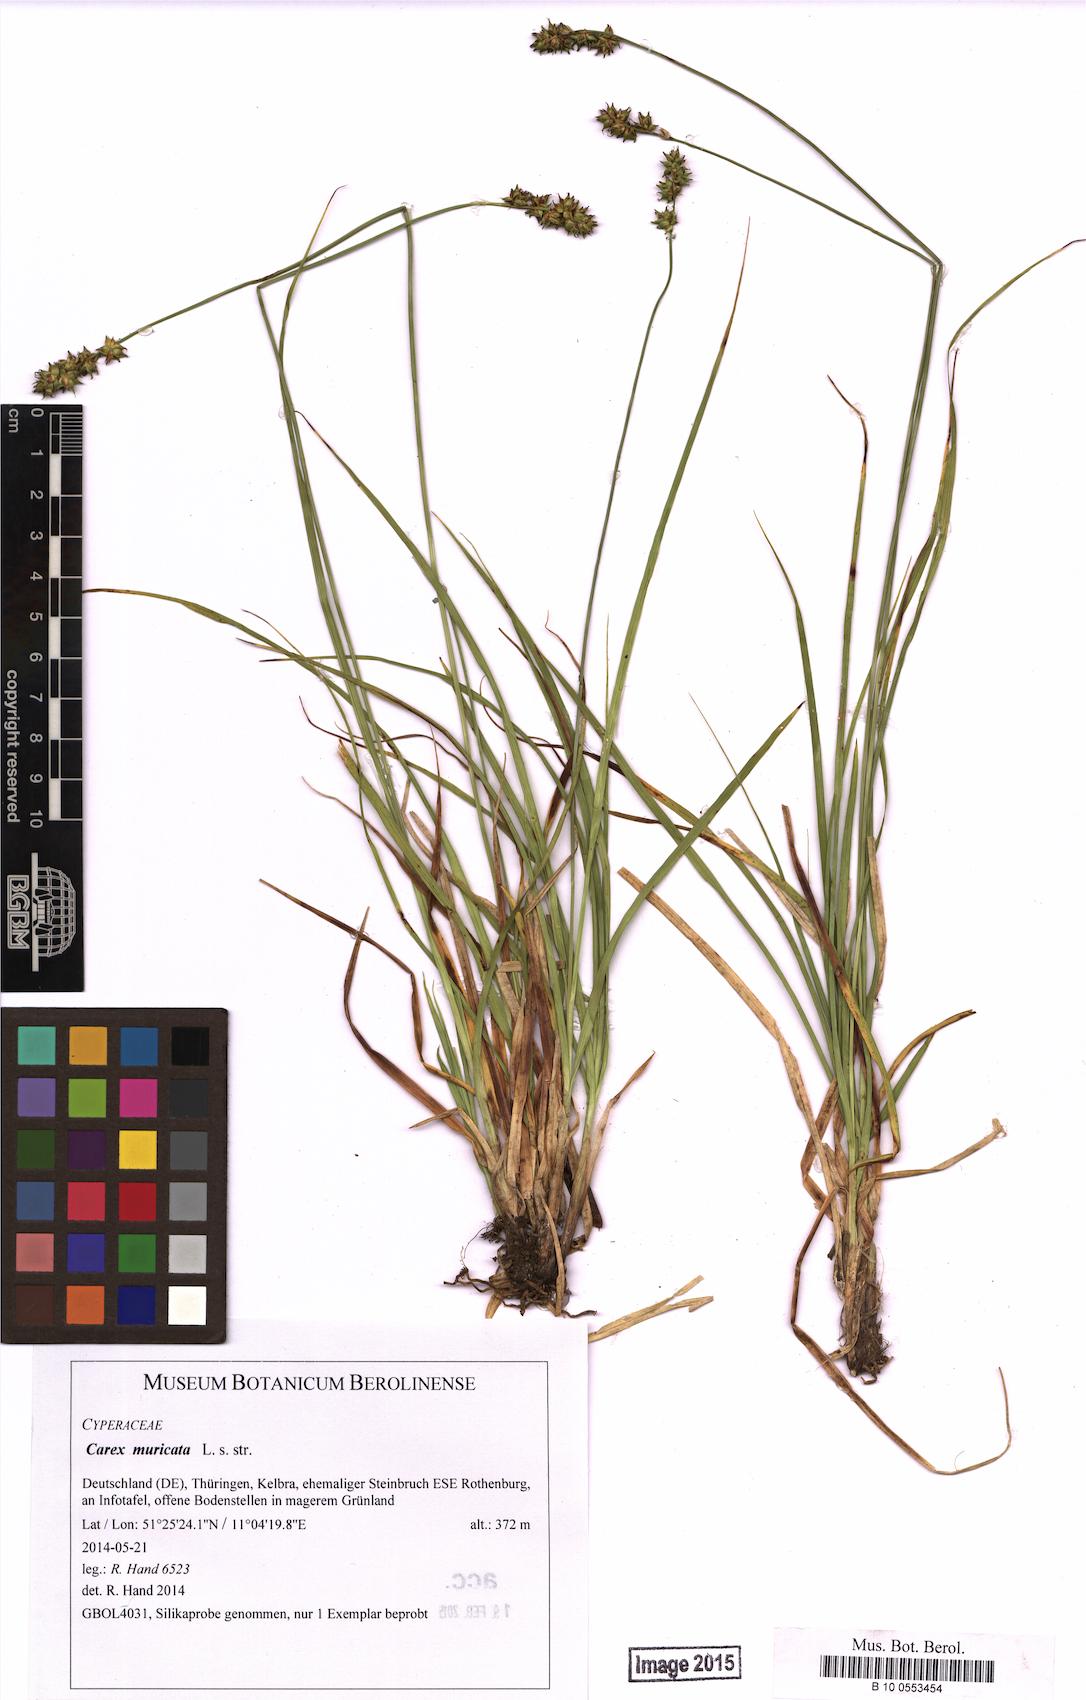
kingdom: Plantae
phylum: Tracheophyta
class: Liliopsida
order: Poales
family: Cyperaceae
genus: Carex
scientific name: Carex muricata
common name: Rough sedge
